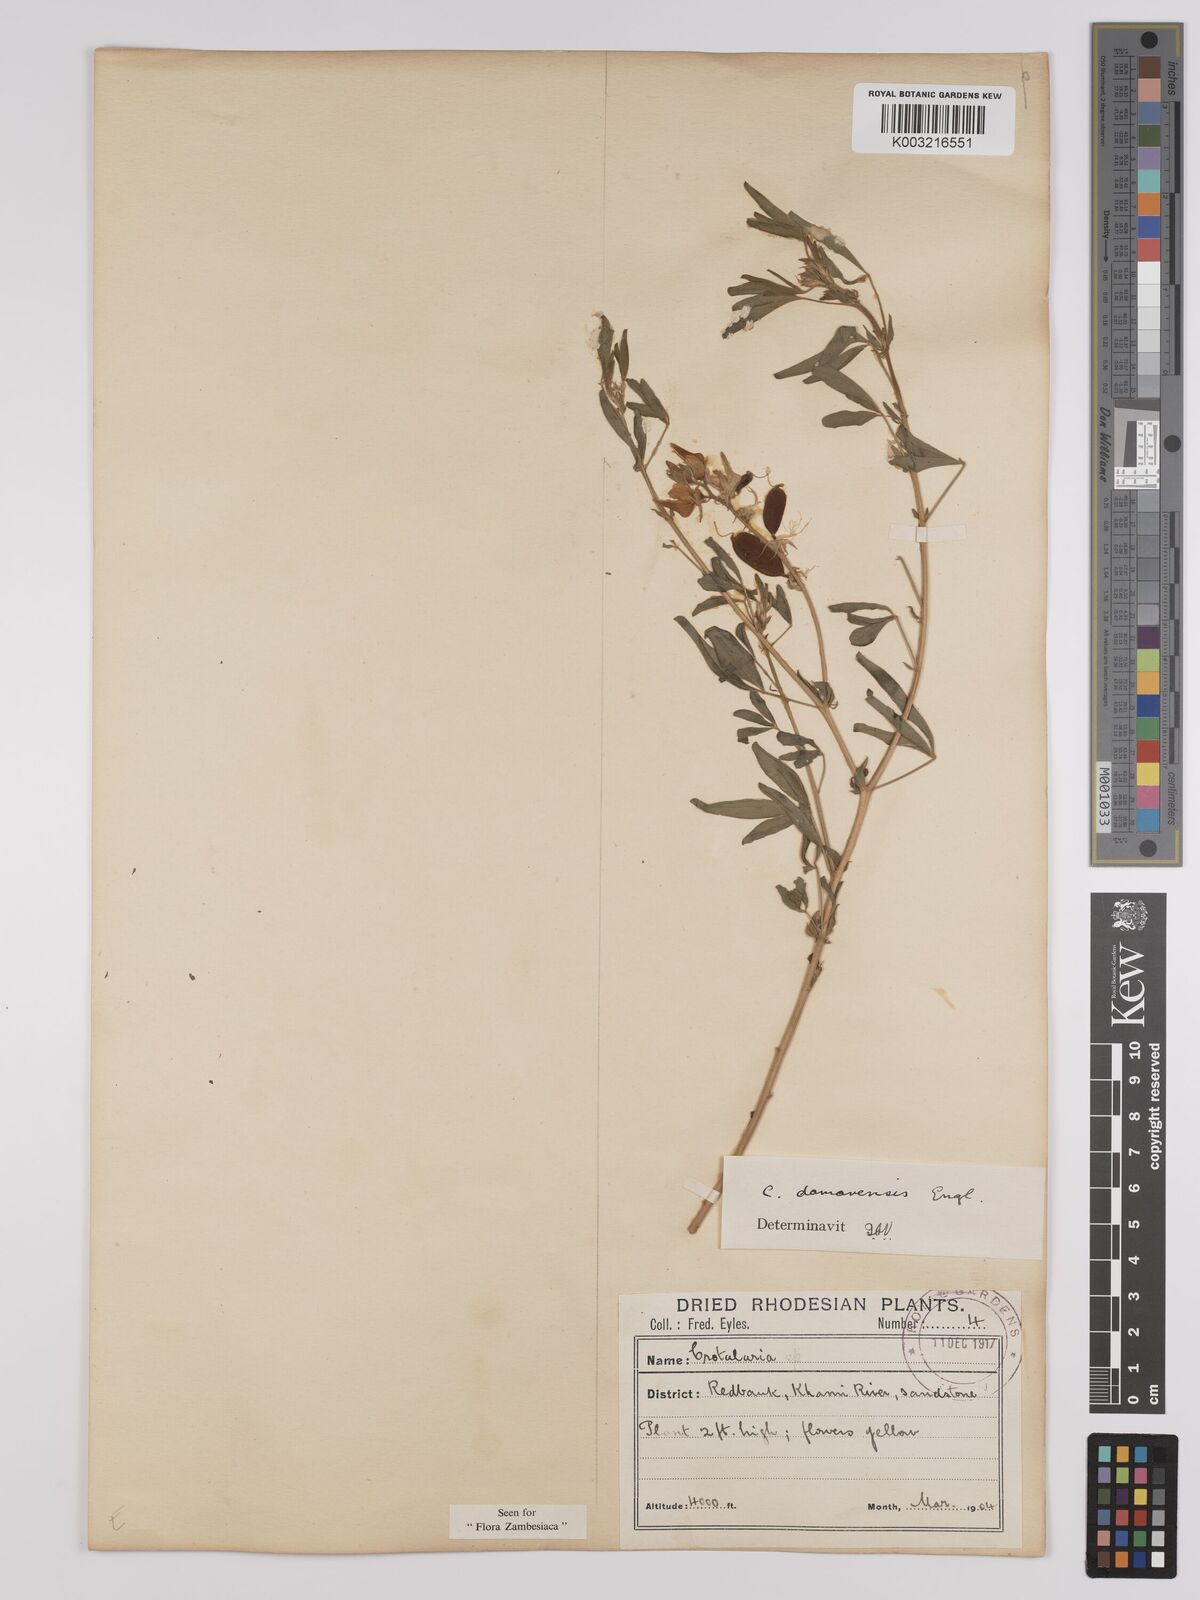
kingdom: Plantae
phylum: Tracheophyta
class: Magnoliopsida
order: Fabales
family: Fabaceae
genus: Crotalaria
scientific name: Crotalaria damarensis
